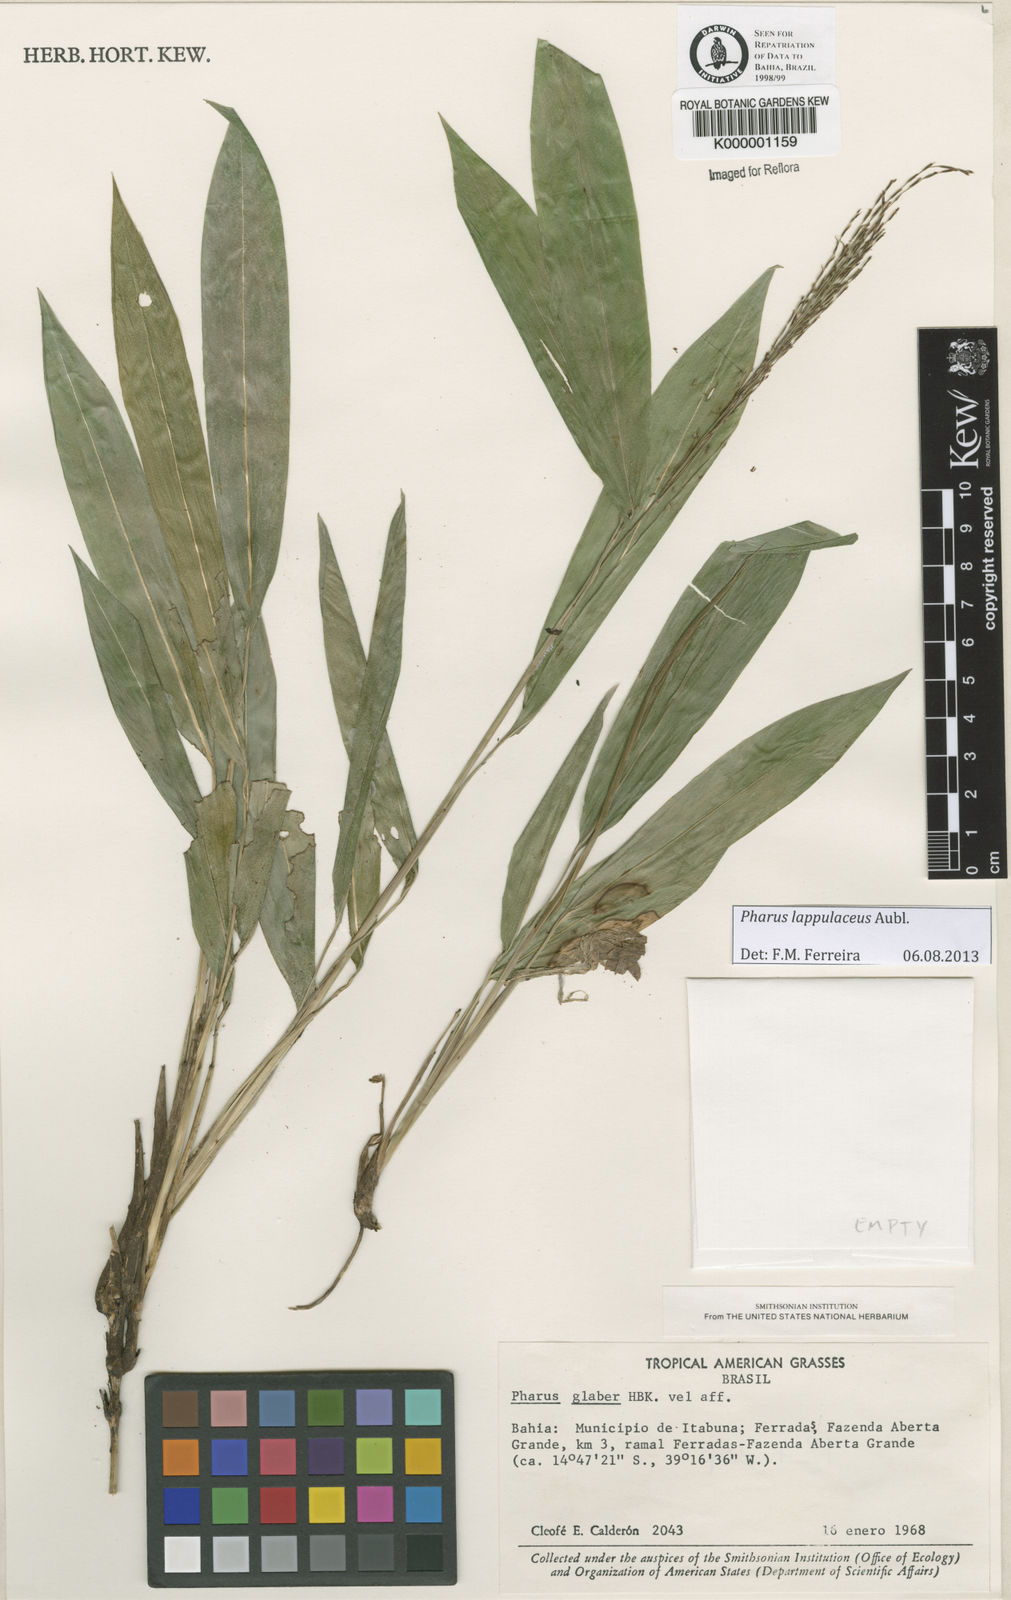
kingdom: Plantae
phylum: Tracheophyta
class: Liliopsida
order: Poales
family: Poaceae
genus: Pharus
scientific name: Pharus lappulaceus
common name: Creeping leafstalk grass
